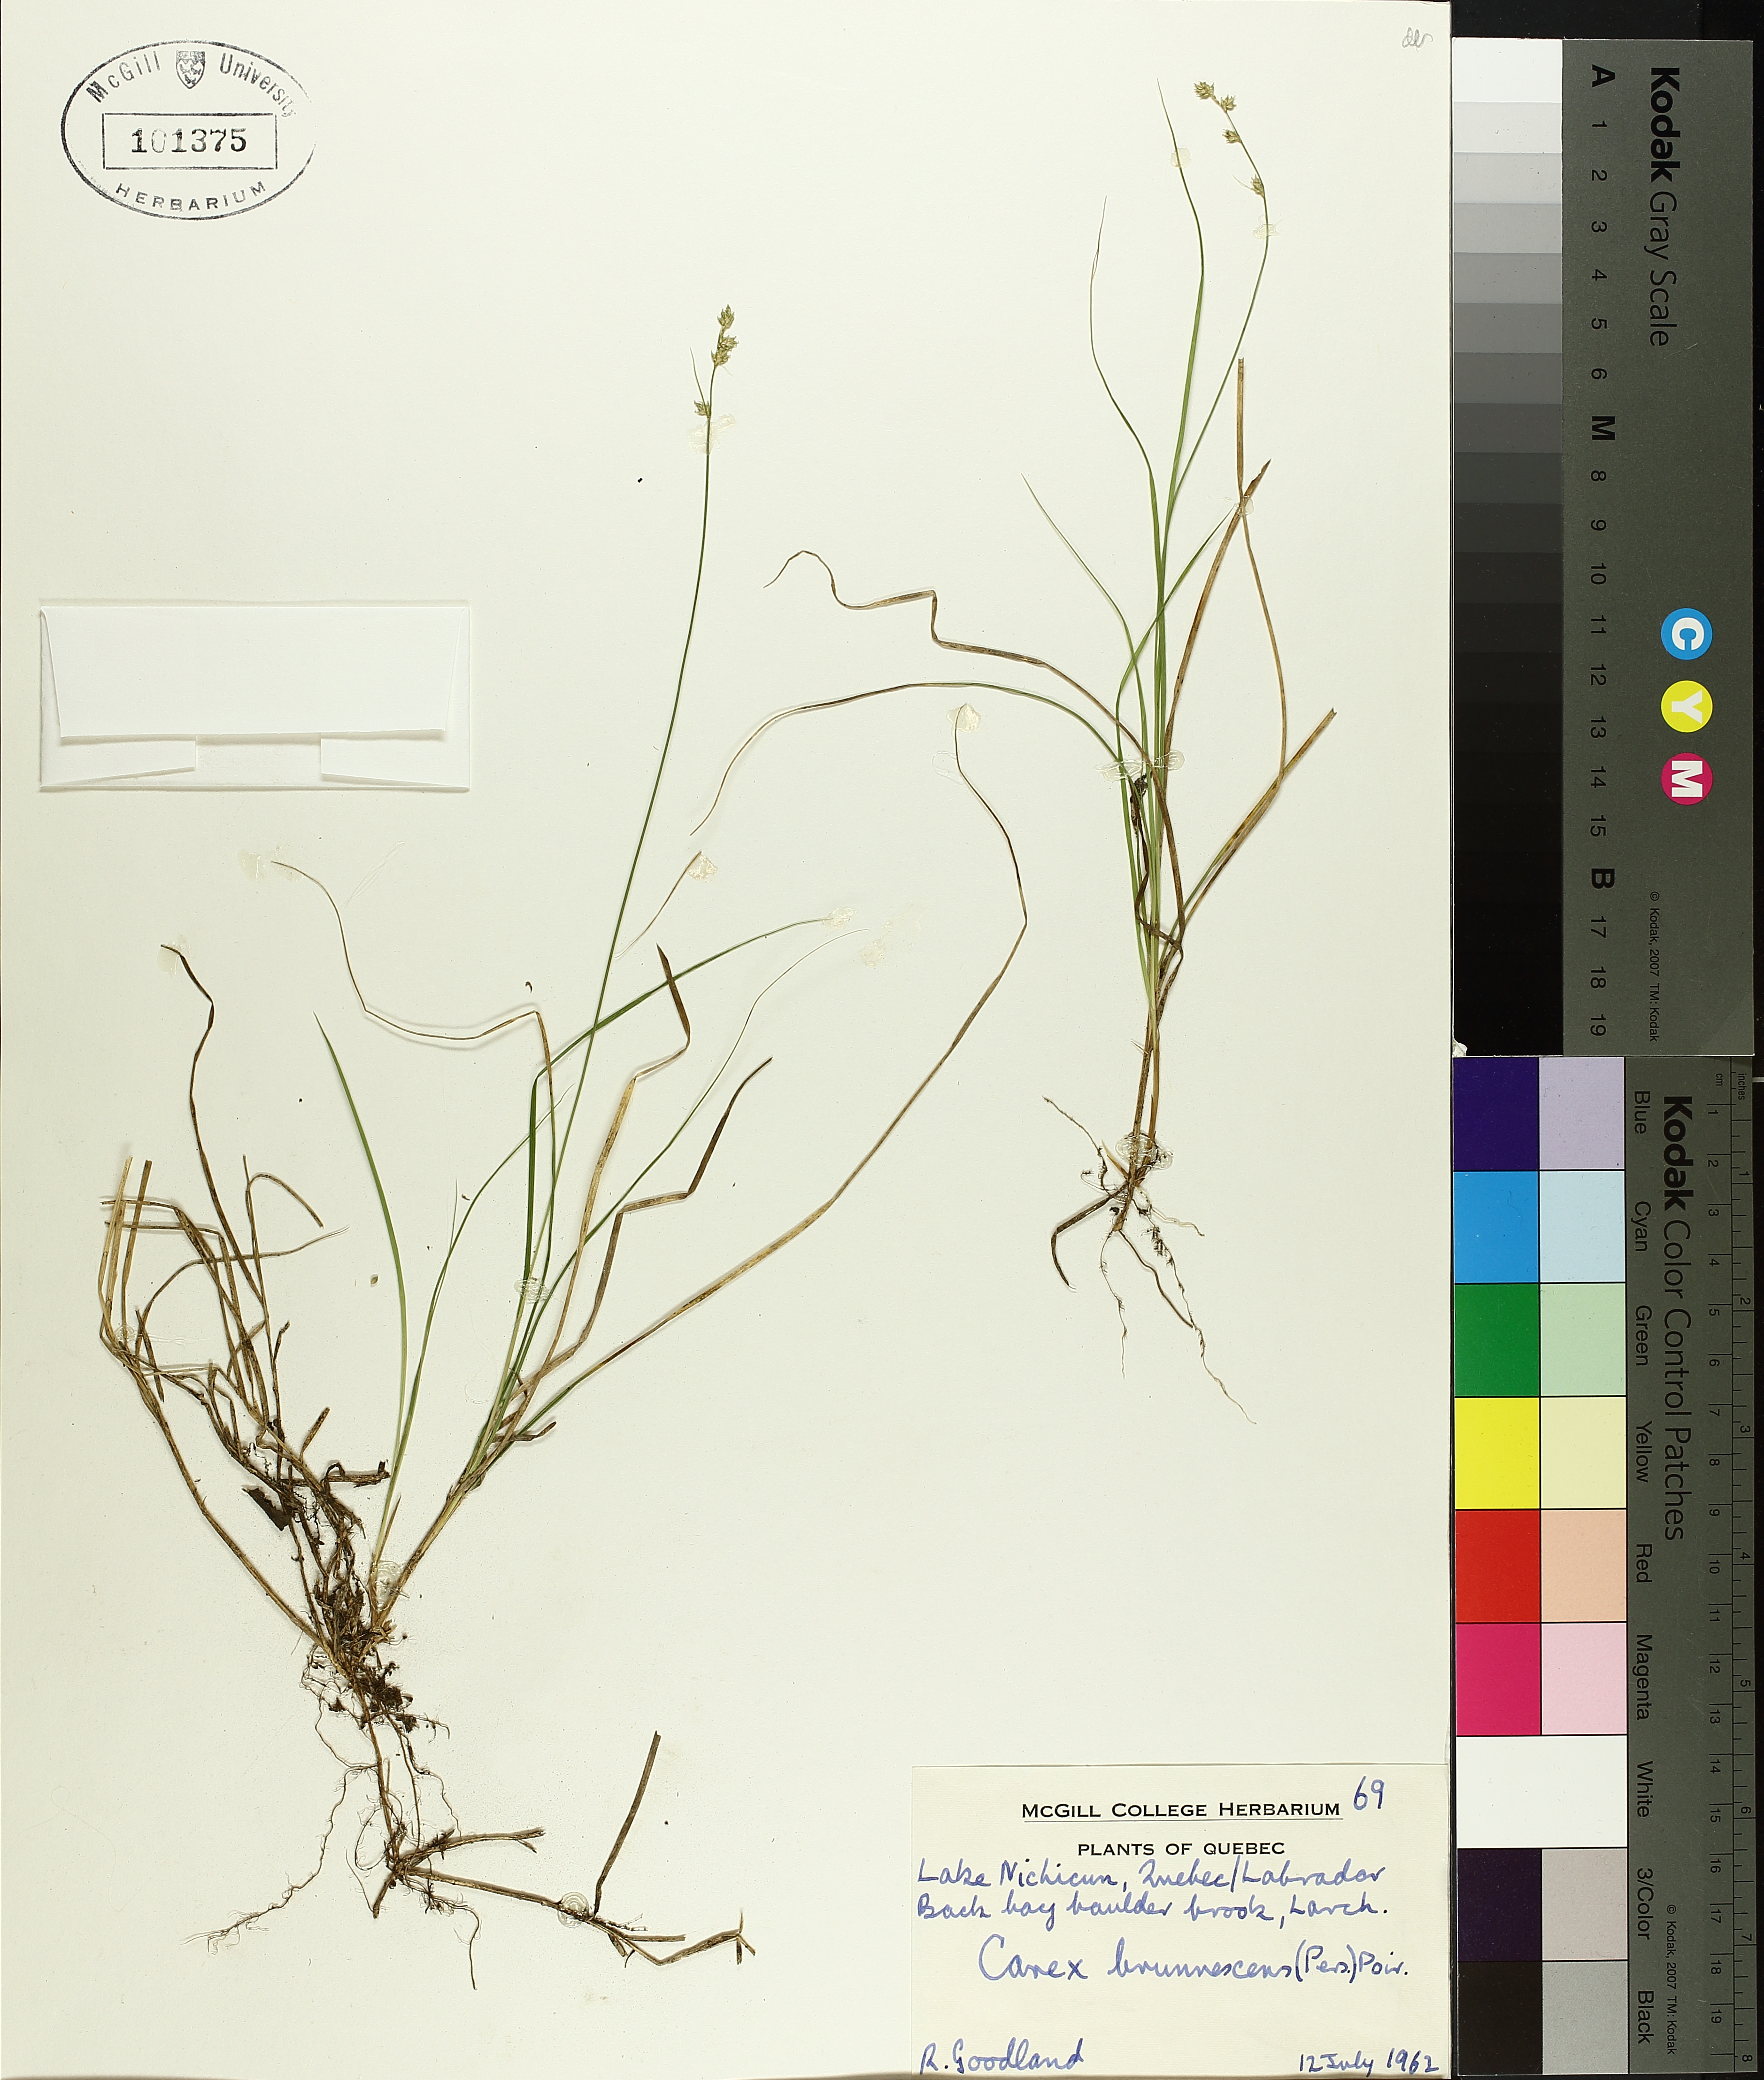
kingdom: Plantae
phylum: Tracheophyta
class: Liliopsida
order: Poales
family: Cyperaceae
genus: Carex
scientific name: Carex brunnescens
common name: Brown sedge
